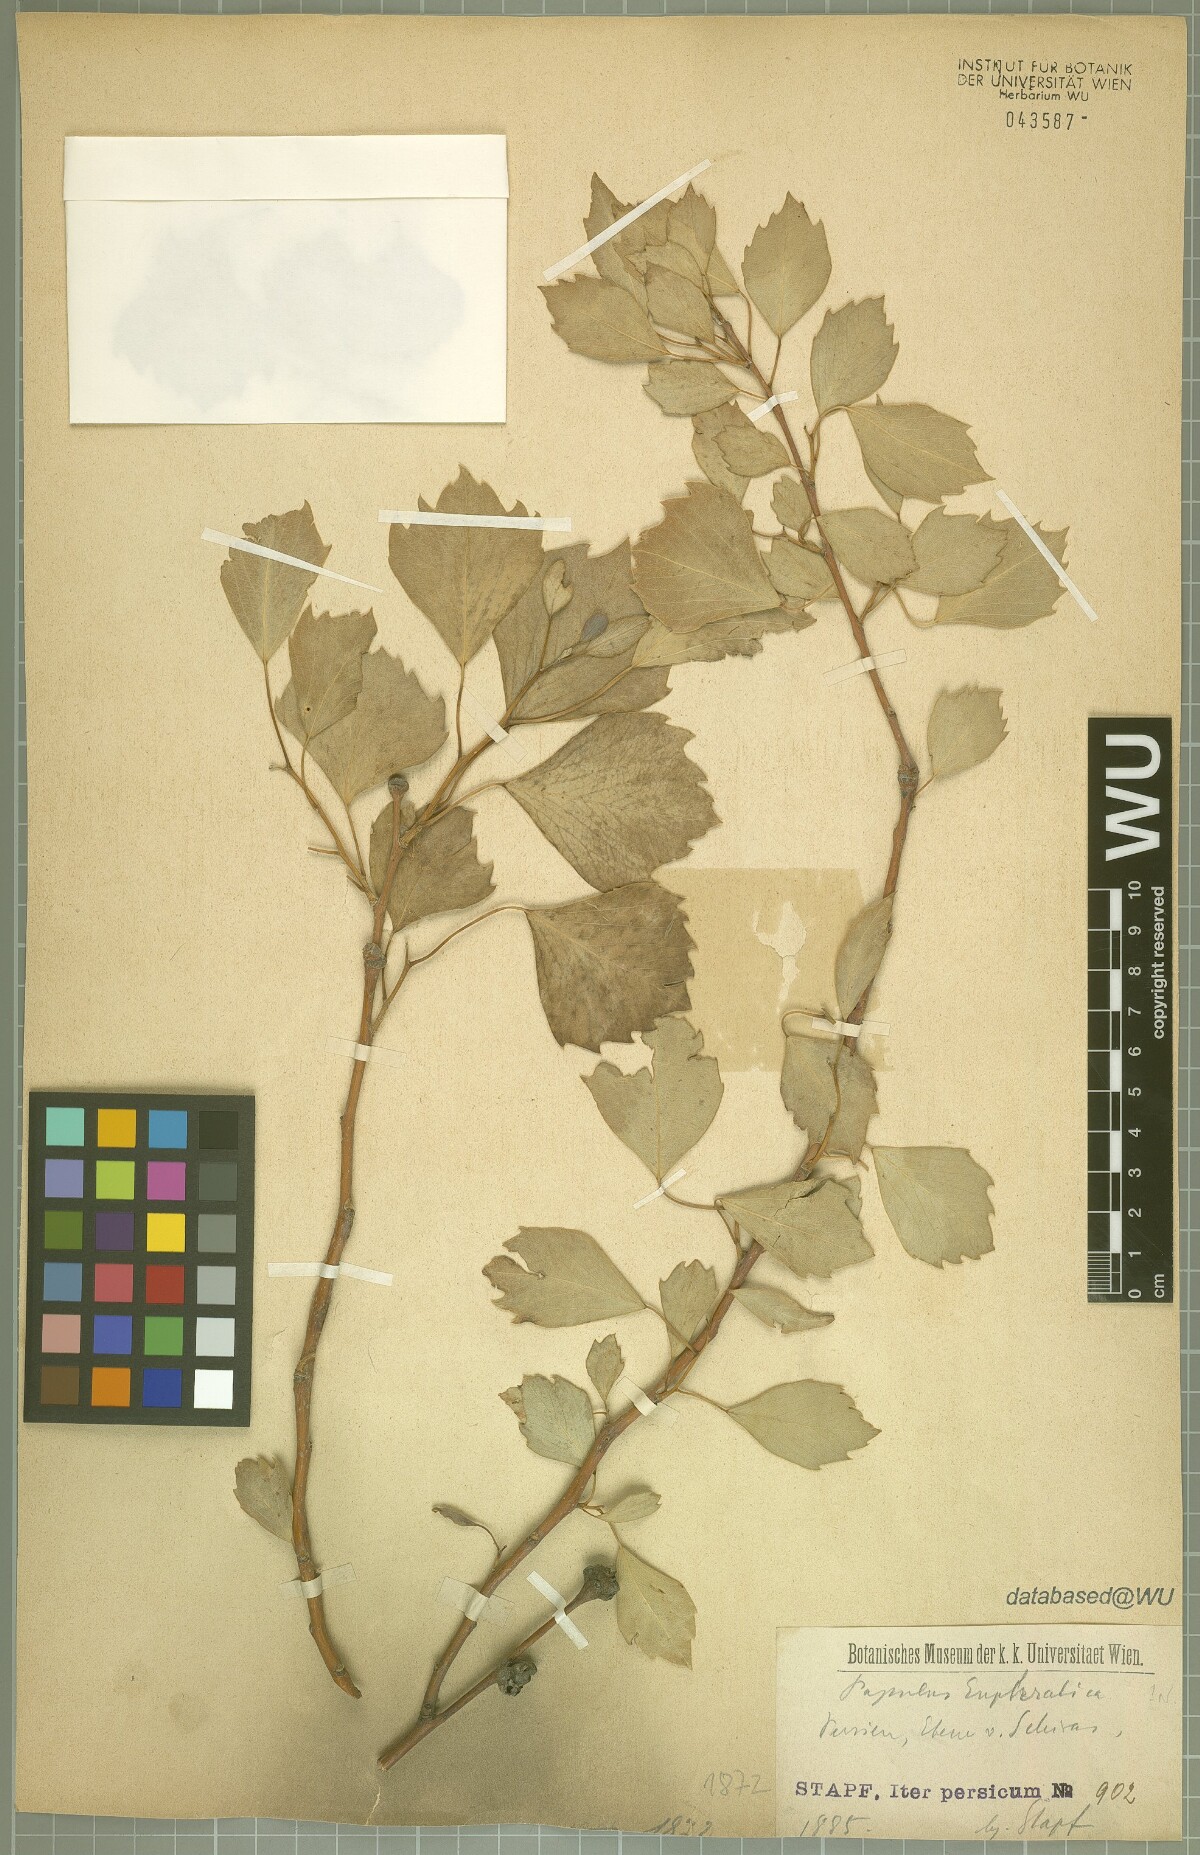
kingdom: Plantae
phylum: Tracheophyta
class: Magnoliopsida
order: Malpighiales
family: Salicaceae
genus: Populus
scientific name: Populus euphratica
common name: Euphrates poplar
